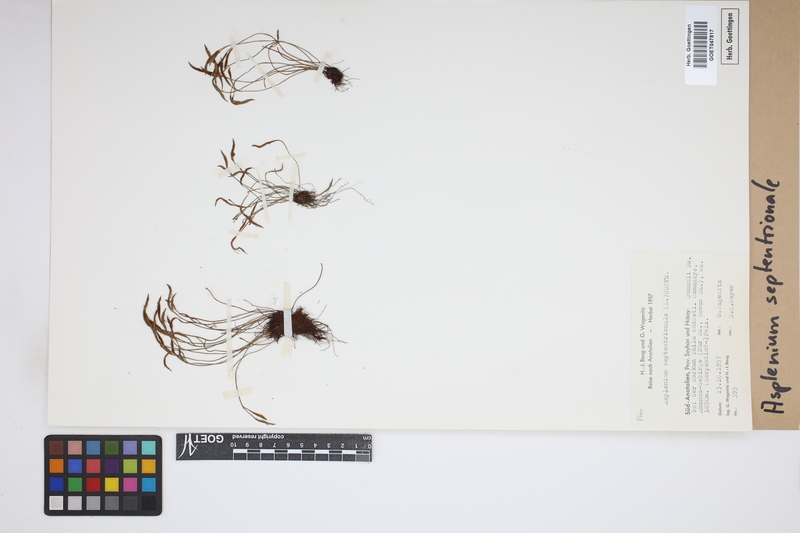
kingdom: Plantae
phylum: Tracheophyta
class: Polypodiopsida
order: Polypodiales
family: Aspleniaceae
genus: Asplenium
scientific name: Asplenium septentrionale
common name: Forked spleenwort
